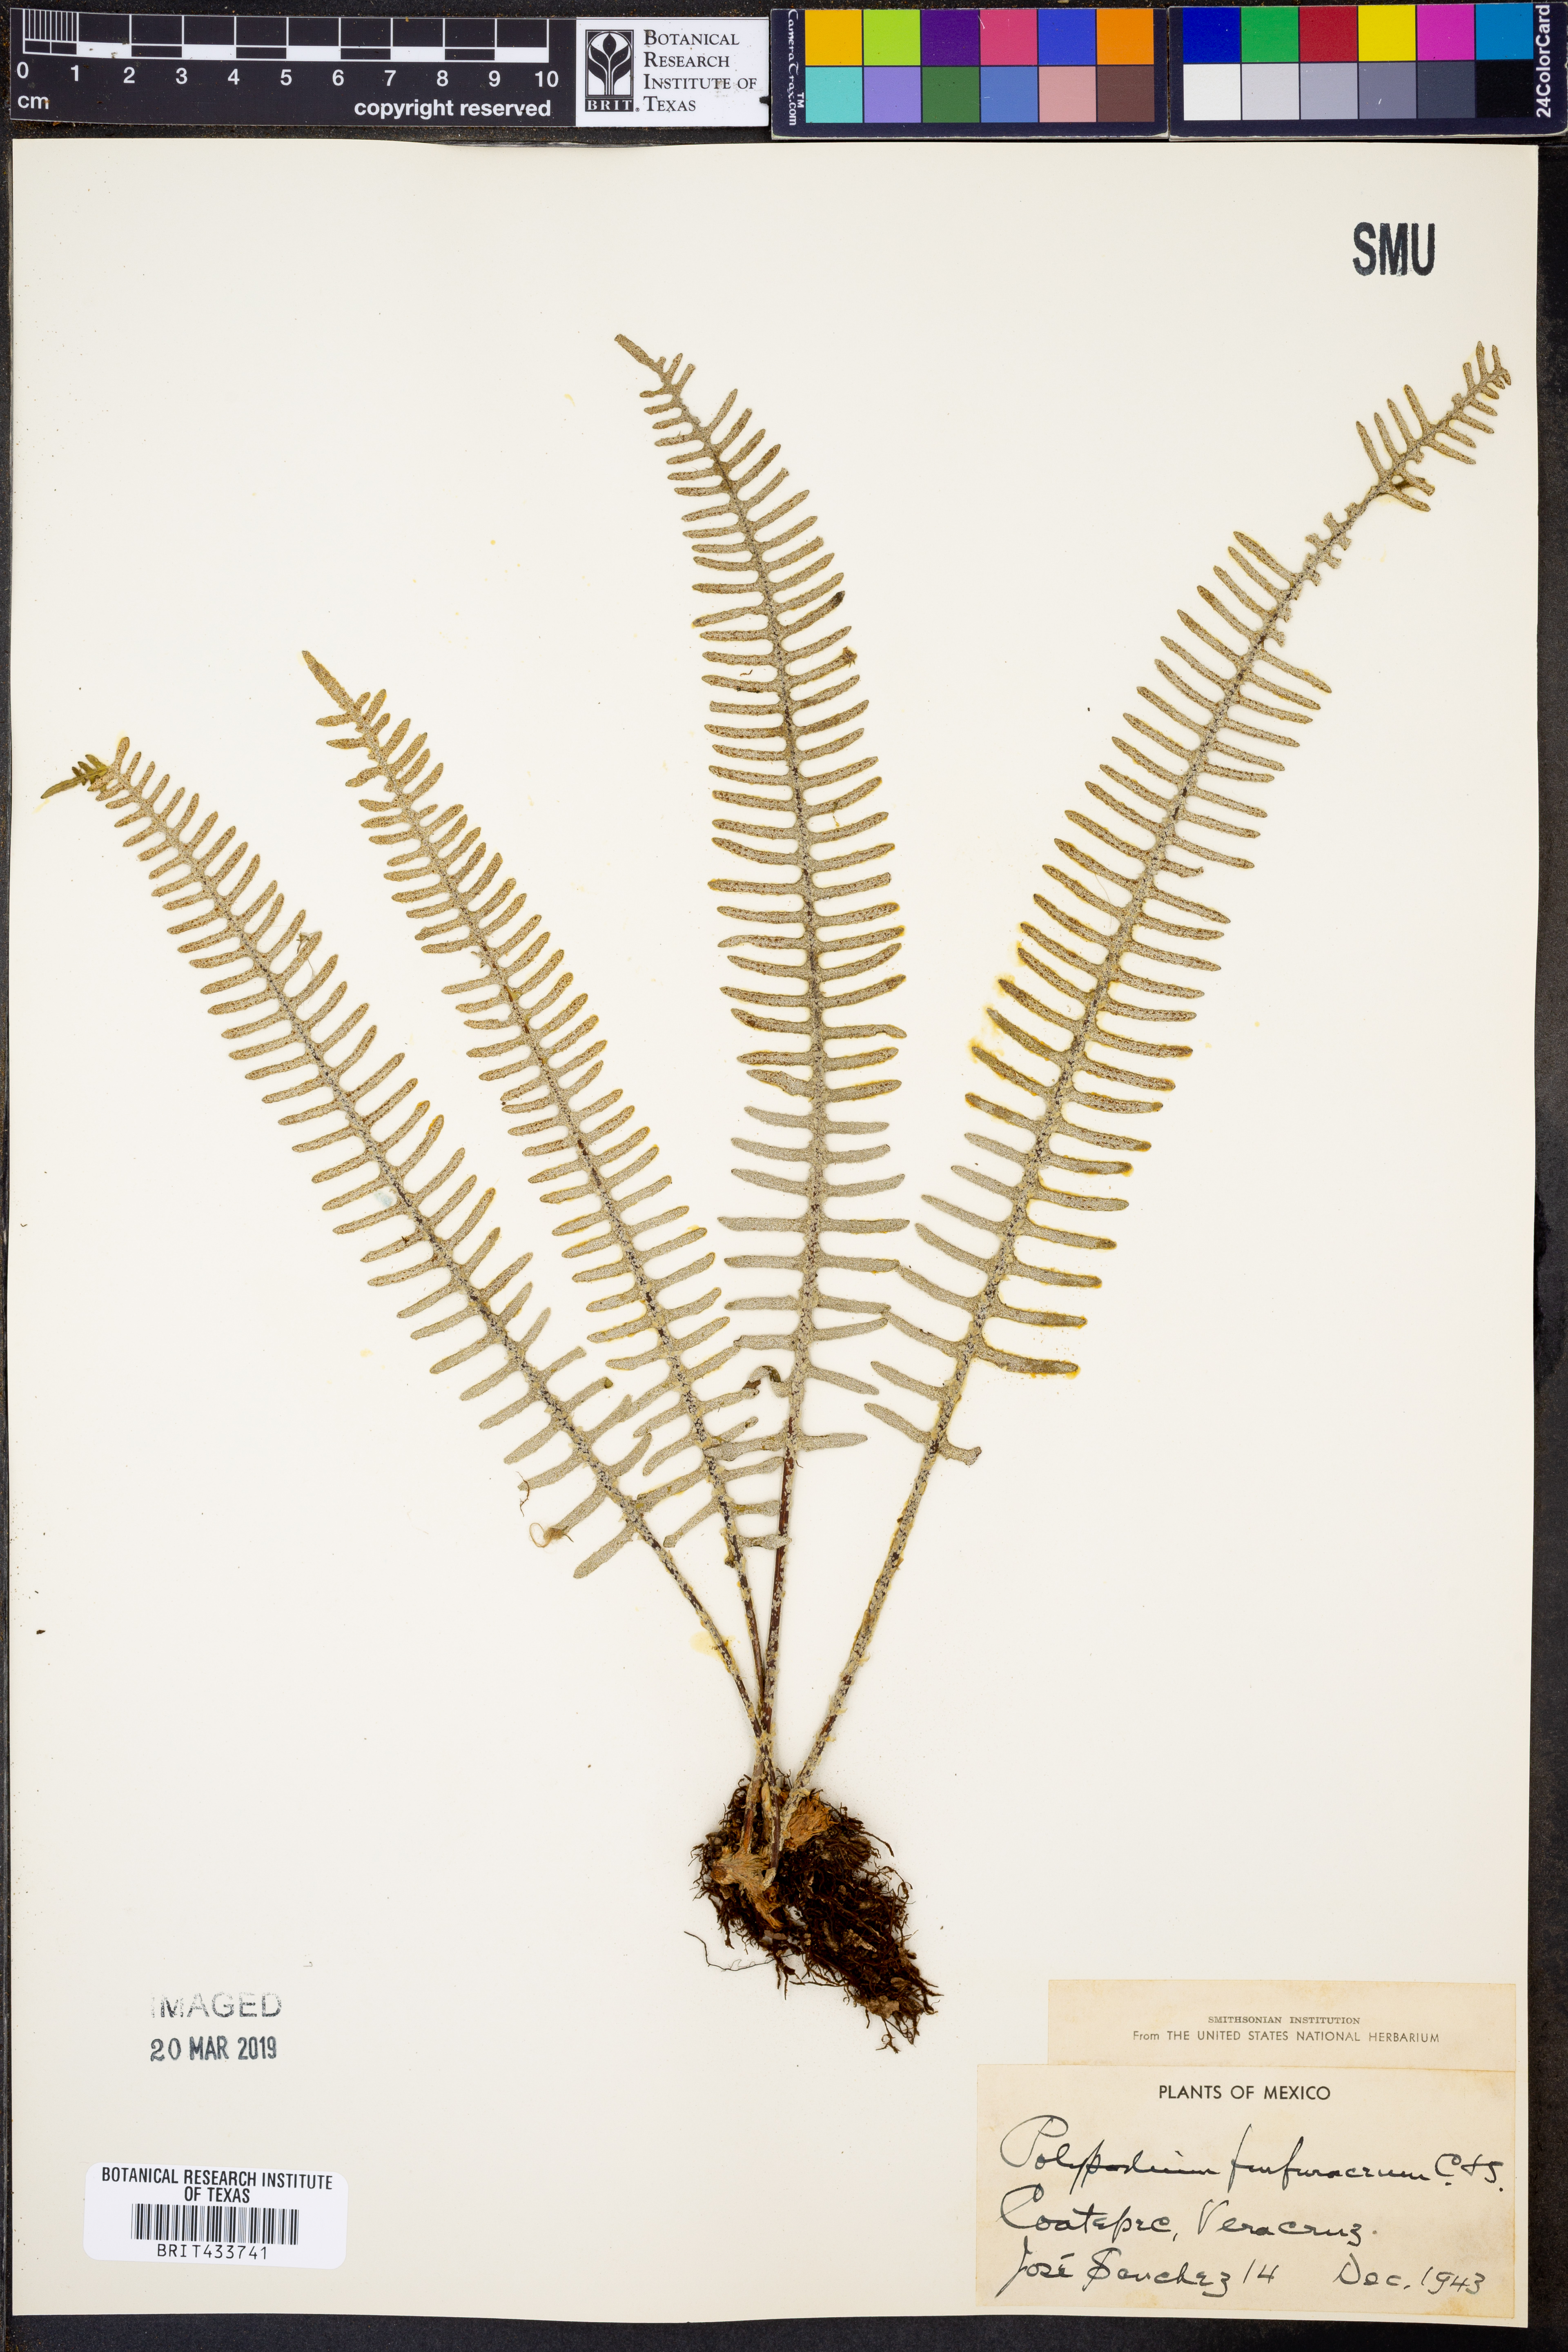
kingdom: Plantae
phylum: Tracheophyta
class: Polypodiopsida
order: Polypodiales
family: Polypodiaceae
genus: Pyrrosia
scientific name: Pyrrosia longifolia
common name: Long-leaved felt fern
